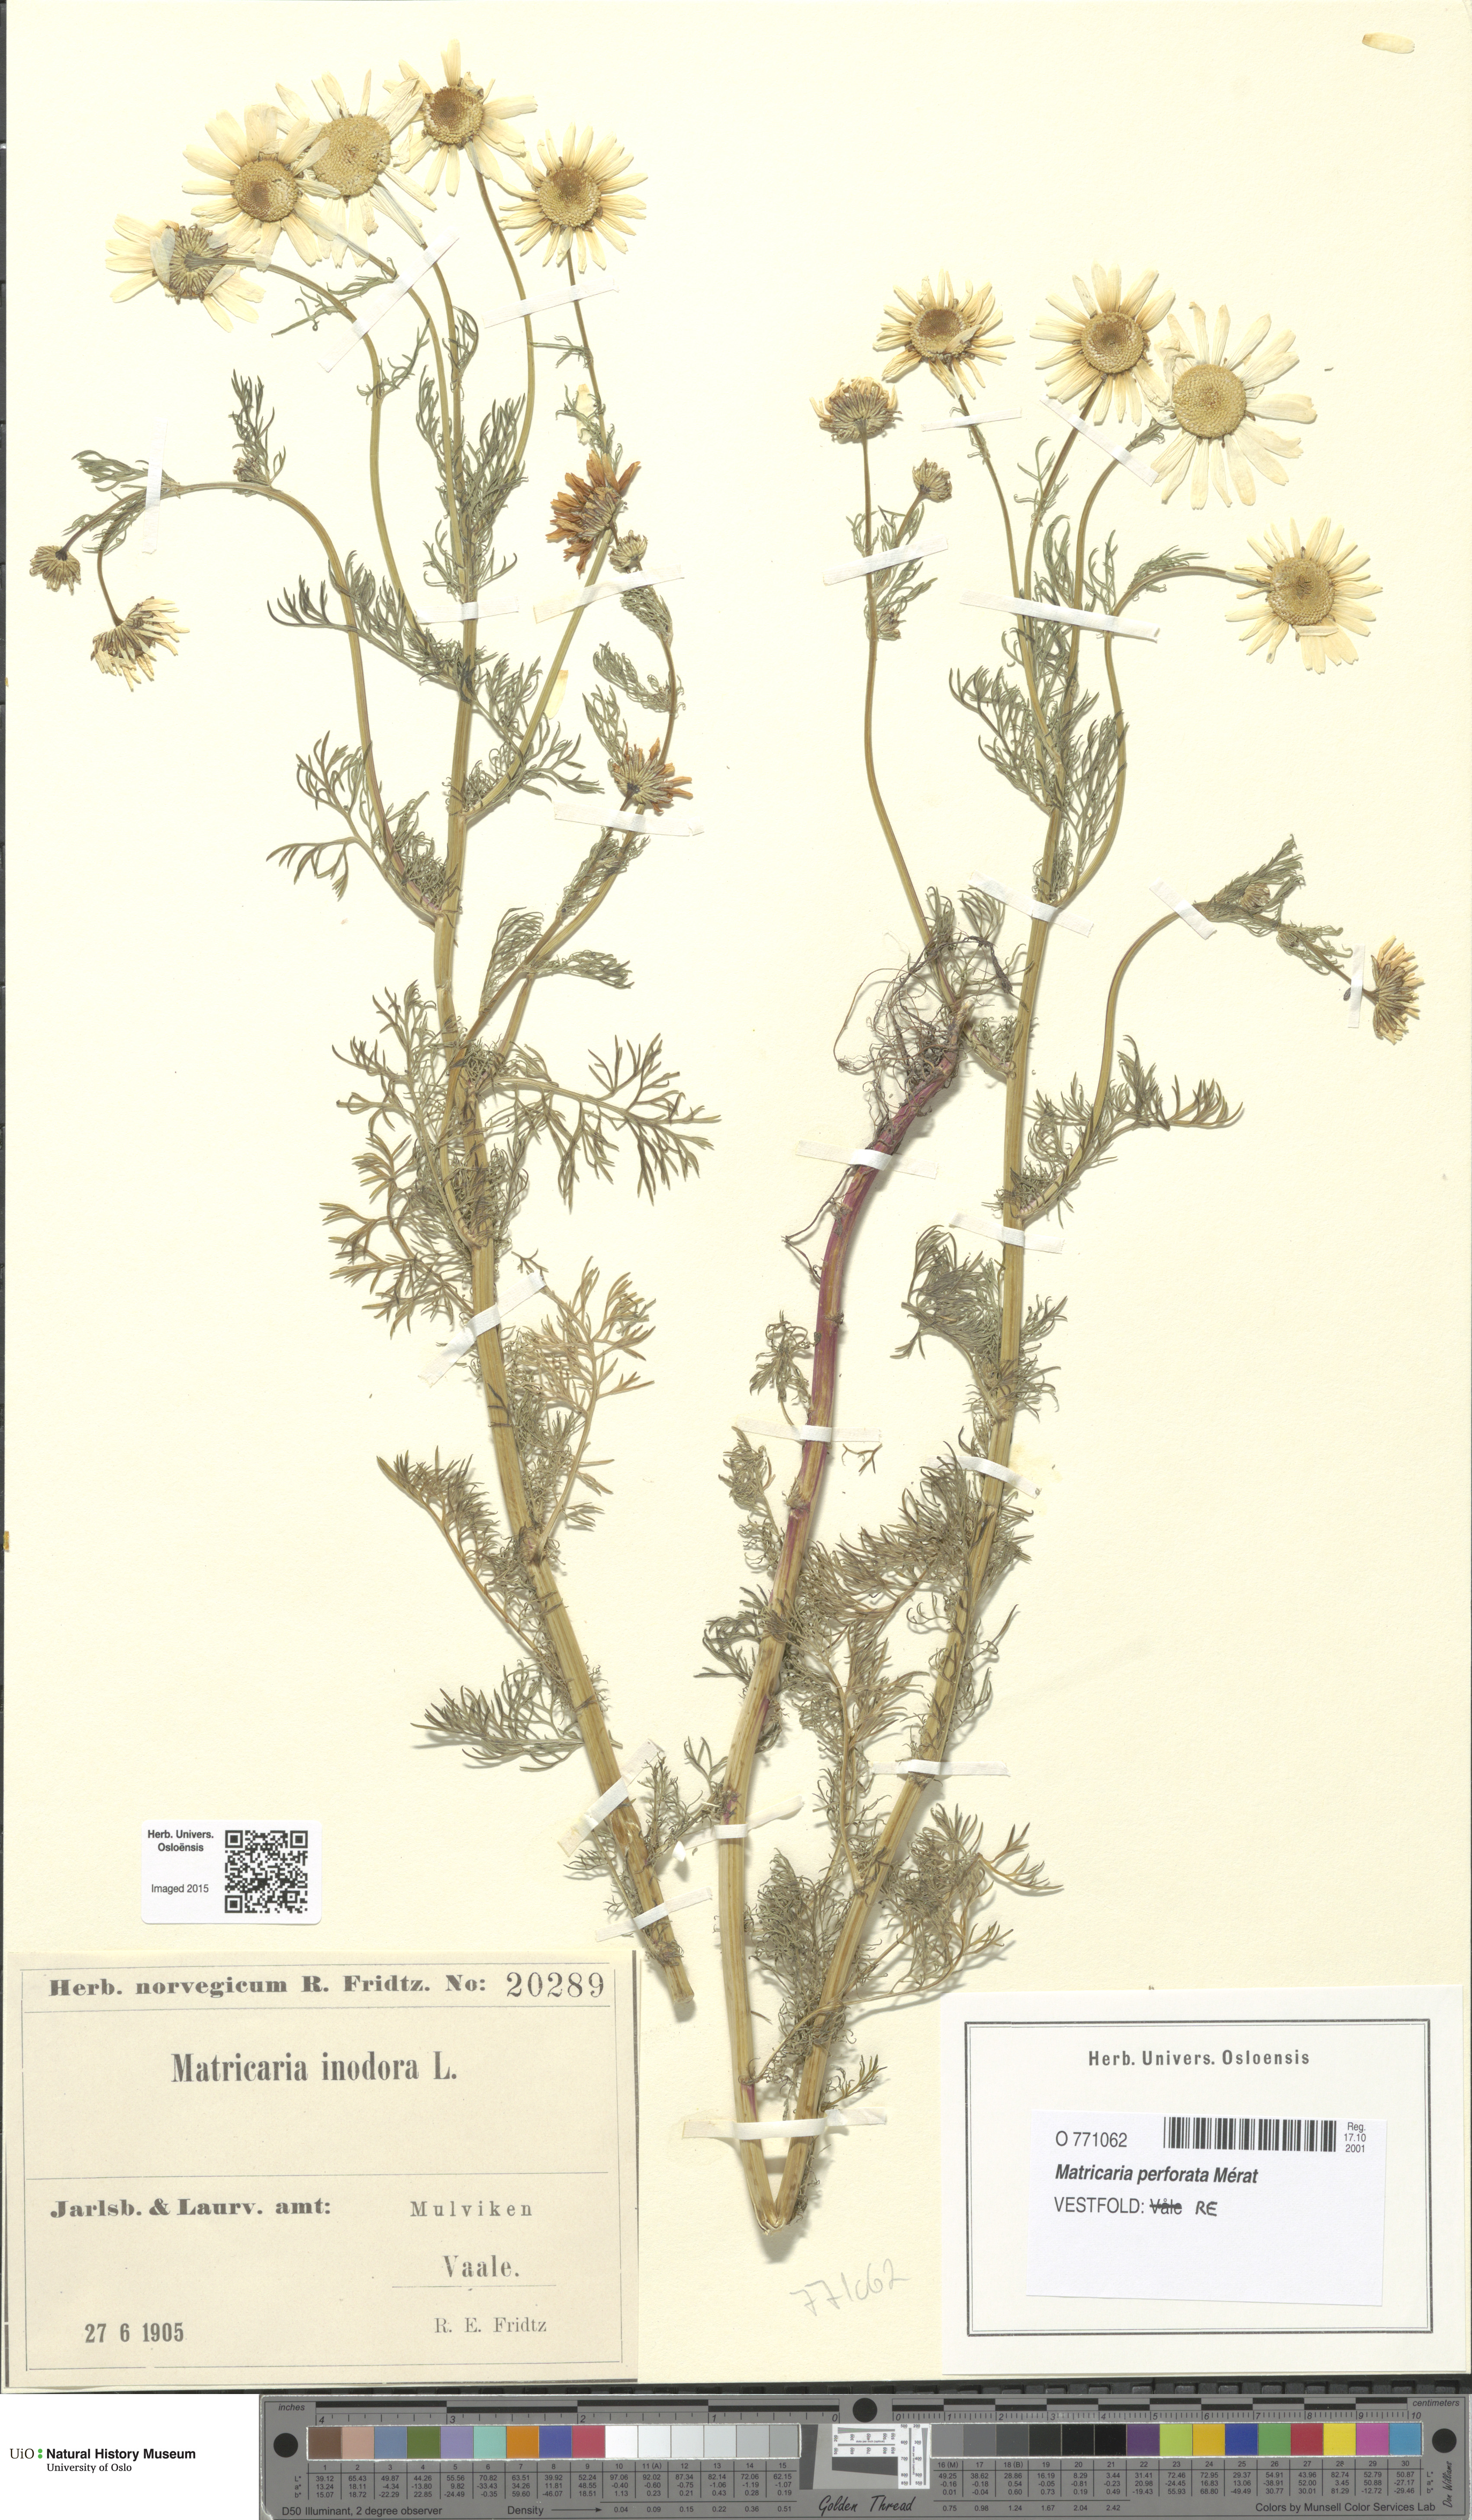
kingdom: Plantae
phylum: Tracheophyta
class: Magnoliopsida
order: Asterales
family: Asteraceae
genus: Tripleurospermum
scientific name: Tripleurospermum inodorum
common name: Scentless mayweed
